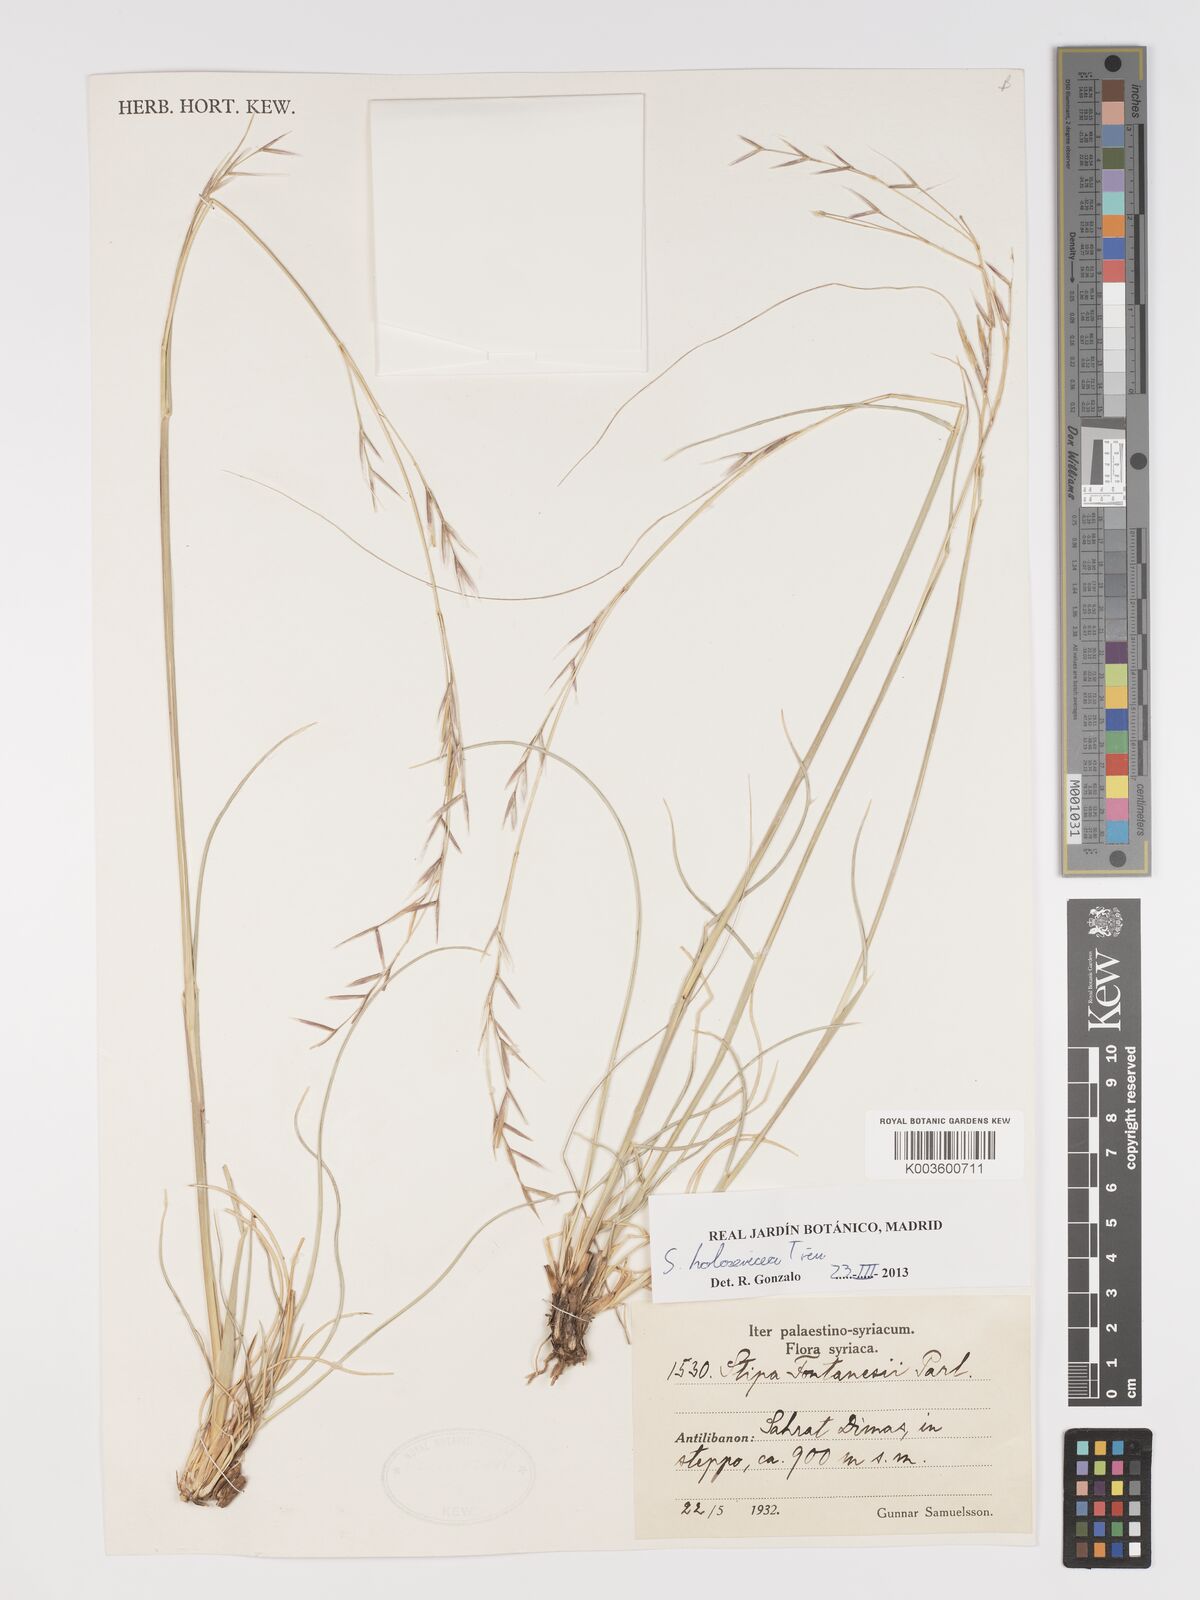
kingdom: Plantae
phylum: Tracheophyta
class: Liliopsida
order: Poales
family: Poaceae
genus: Stipa
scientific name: Stipa holosericea
